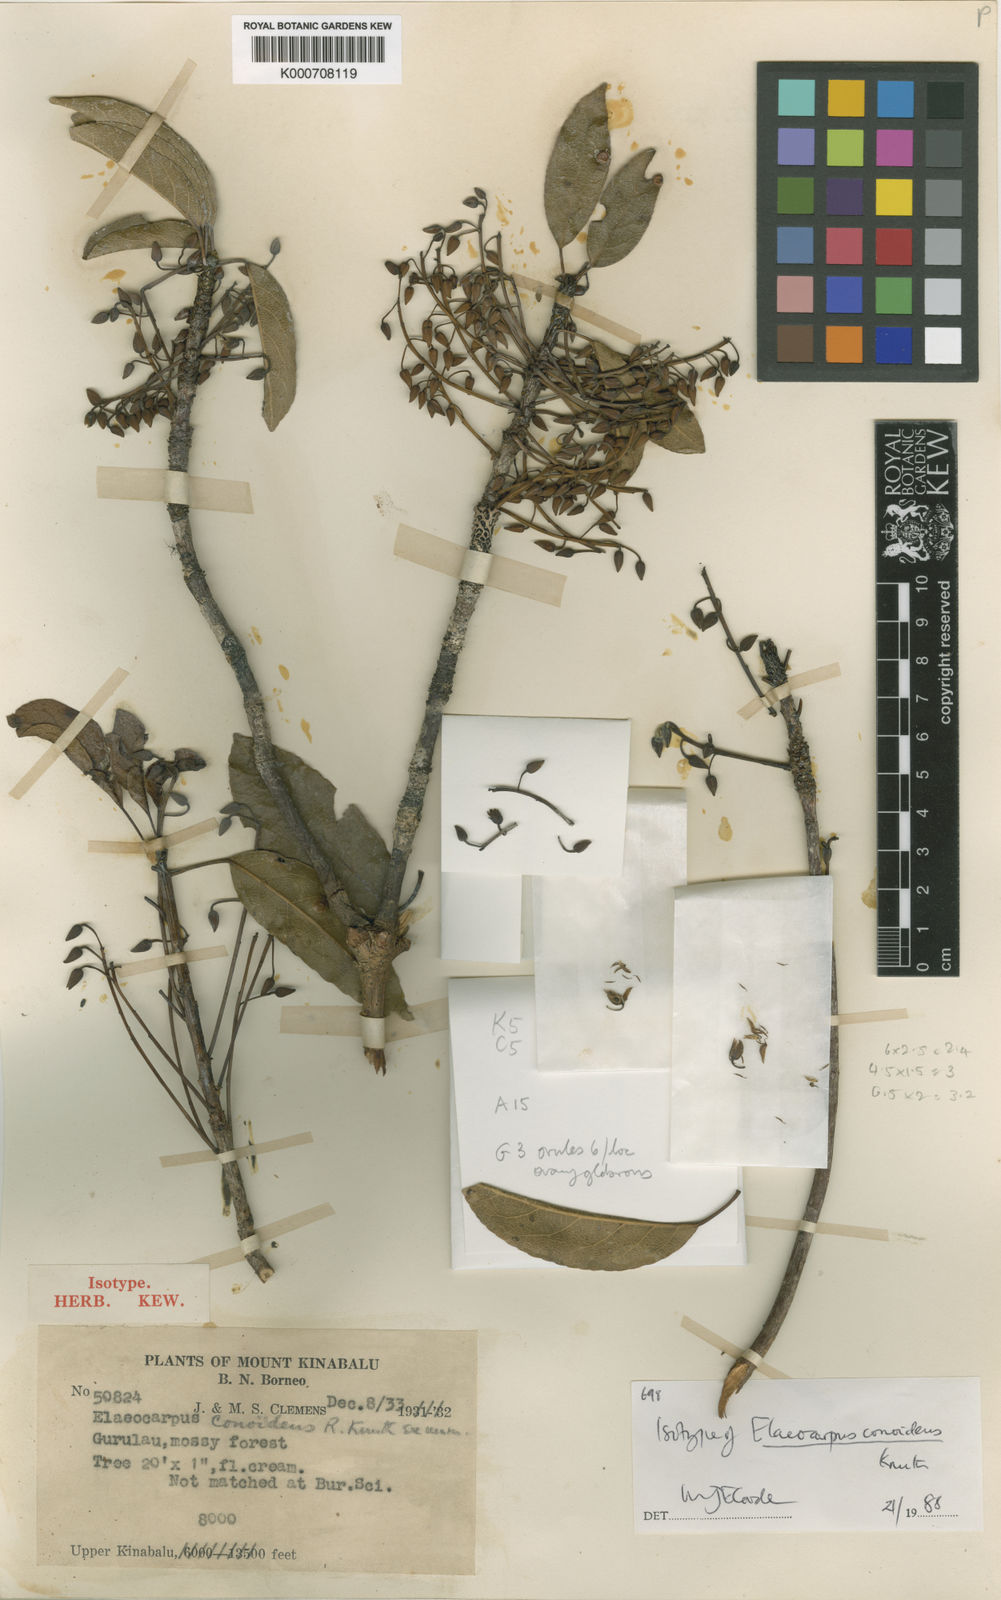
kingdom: Plantae
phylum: Tracheophyta
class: Magnoliopsida
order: Oxalidales
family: Elaeocarpaceae
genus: Elaeocarpus
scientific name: Elaeocarpus conoideus
